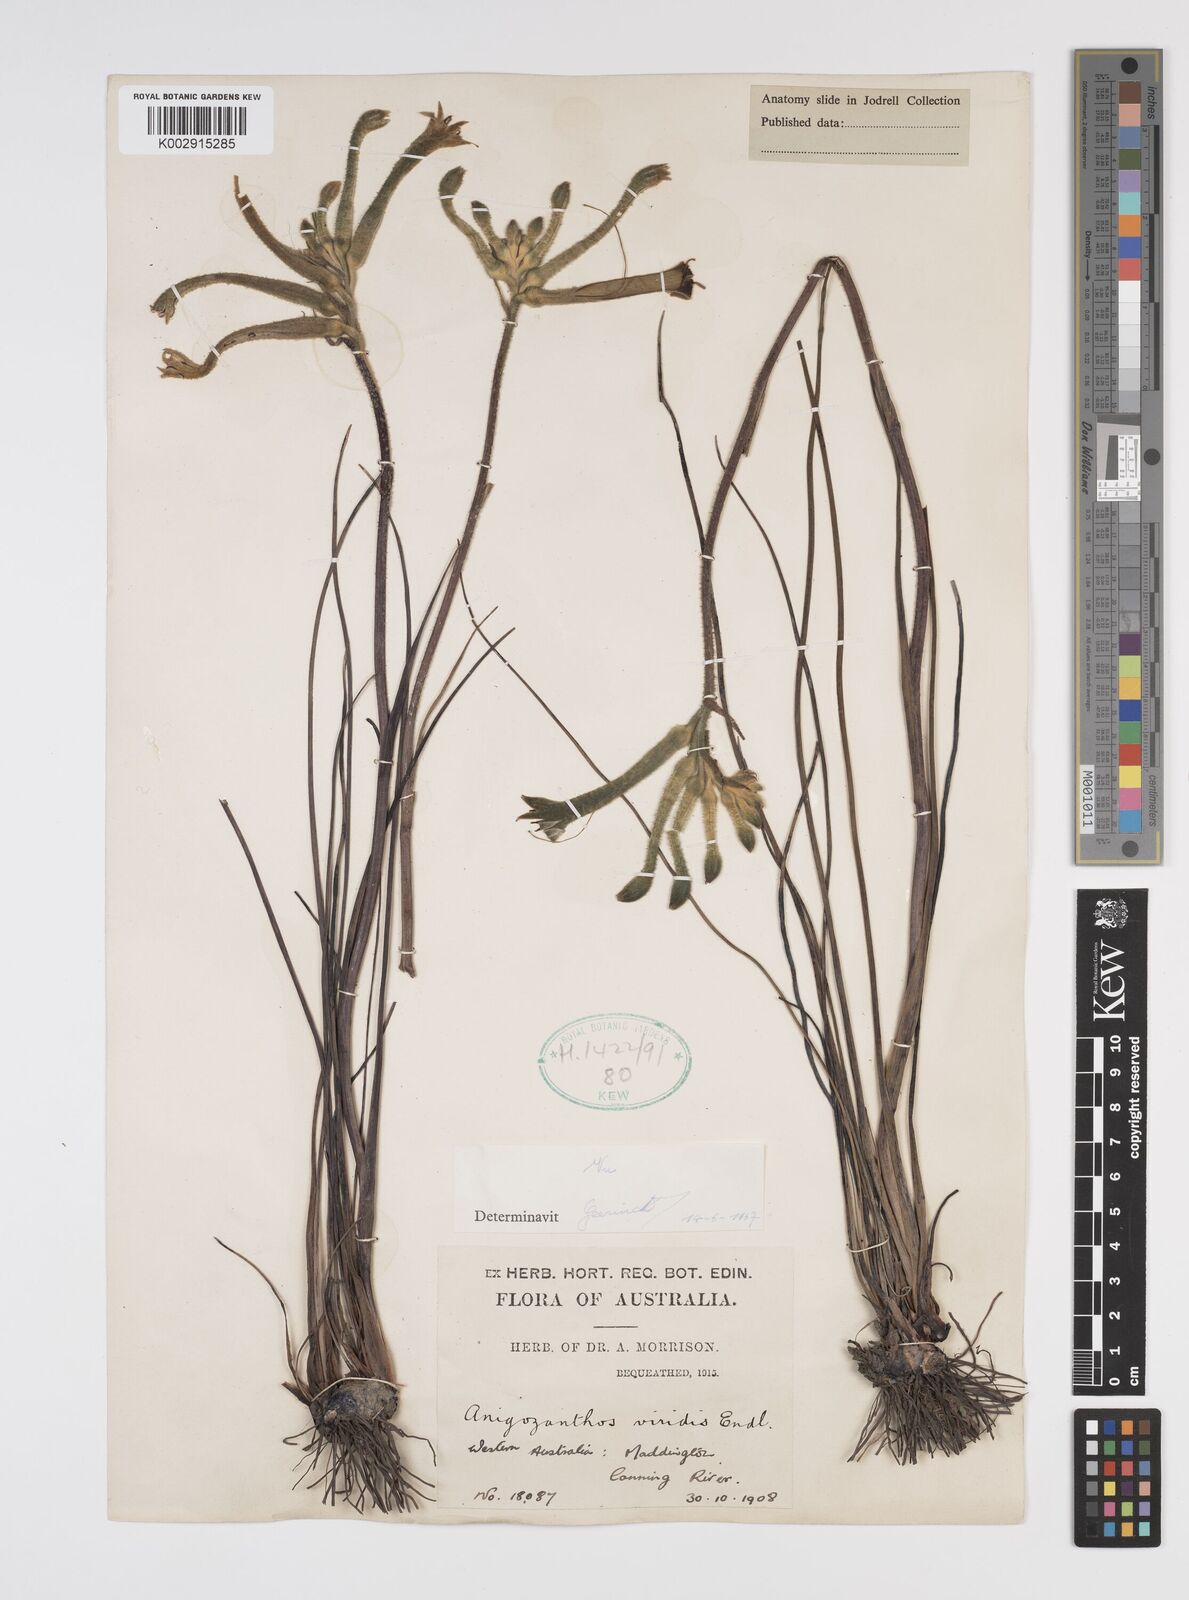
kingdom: Plantae
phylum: Tracheophyta
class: Liliopsida
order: Commelinales
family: Haemodoraceae
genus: Anigozanthos
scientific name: Anigozanthos viridis
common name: Green kangaroo-paw
